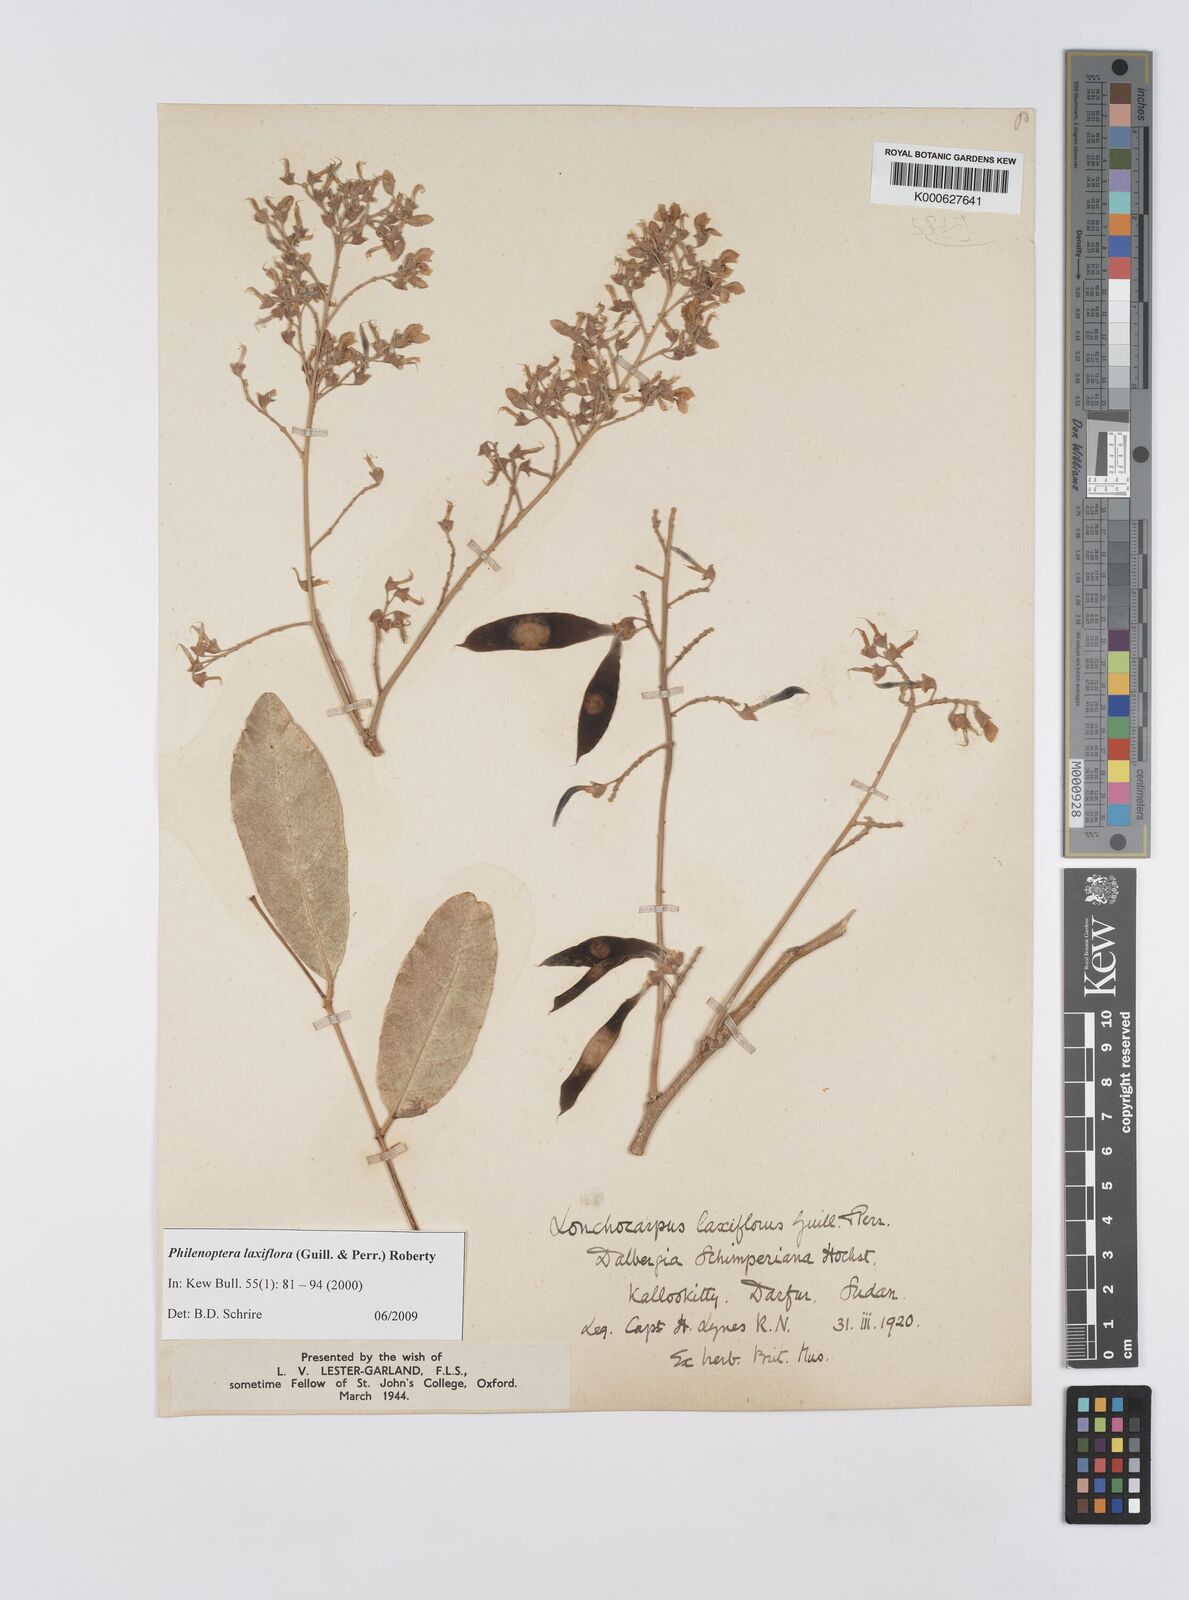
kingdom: Plantae
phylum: Tracheophyta
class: Magnoliopsida
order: Fabales
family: Fabaceae
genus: Philenoptera
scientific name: Philenoptera laxiflora
